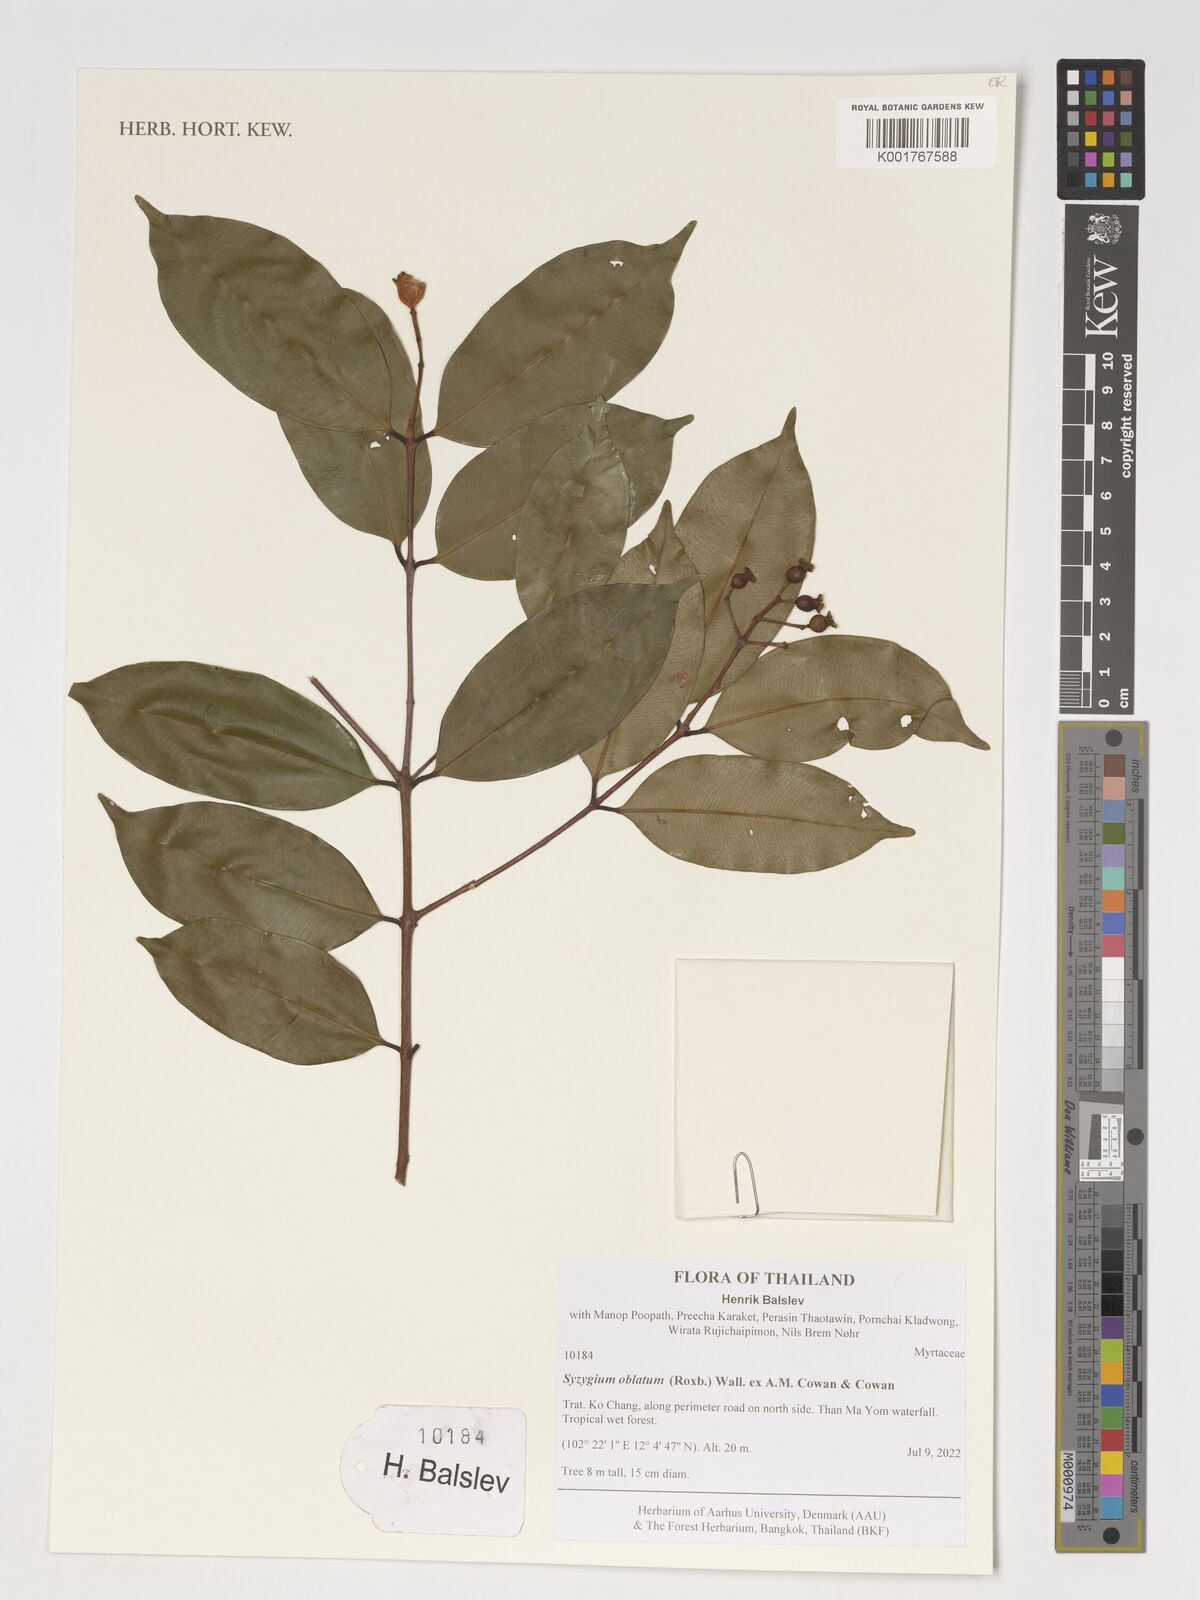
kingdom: Plantae
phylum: Tracheophyta
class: Magnoliopsida
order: Myrtales
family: Myrtaceae
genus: Syzygium
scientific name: Syzygium oblatum
